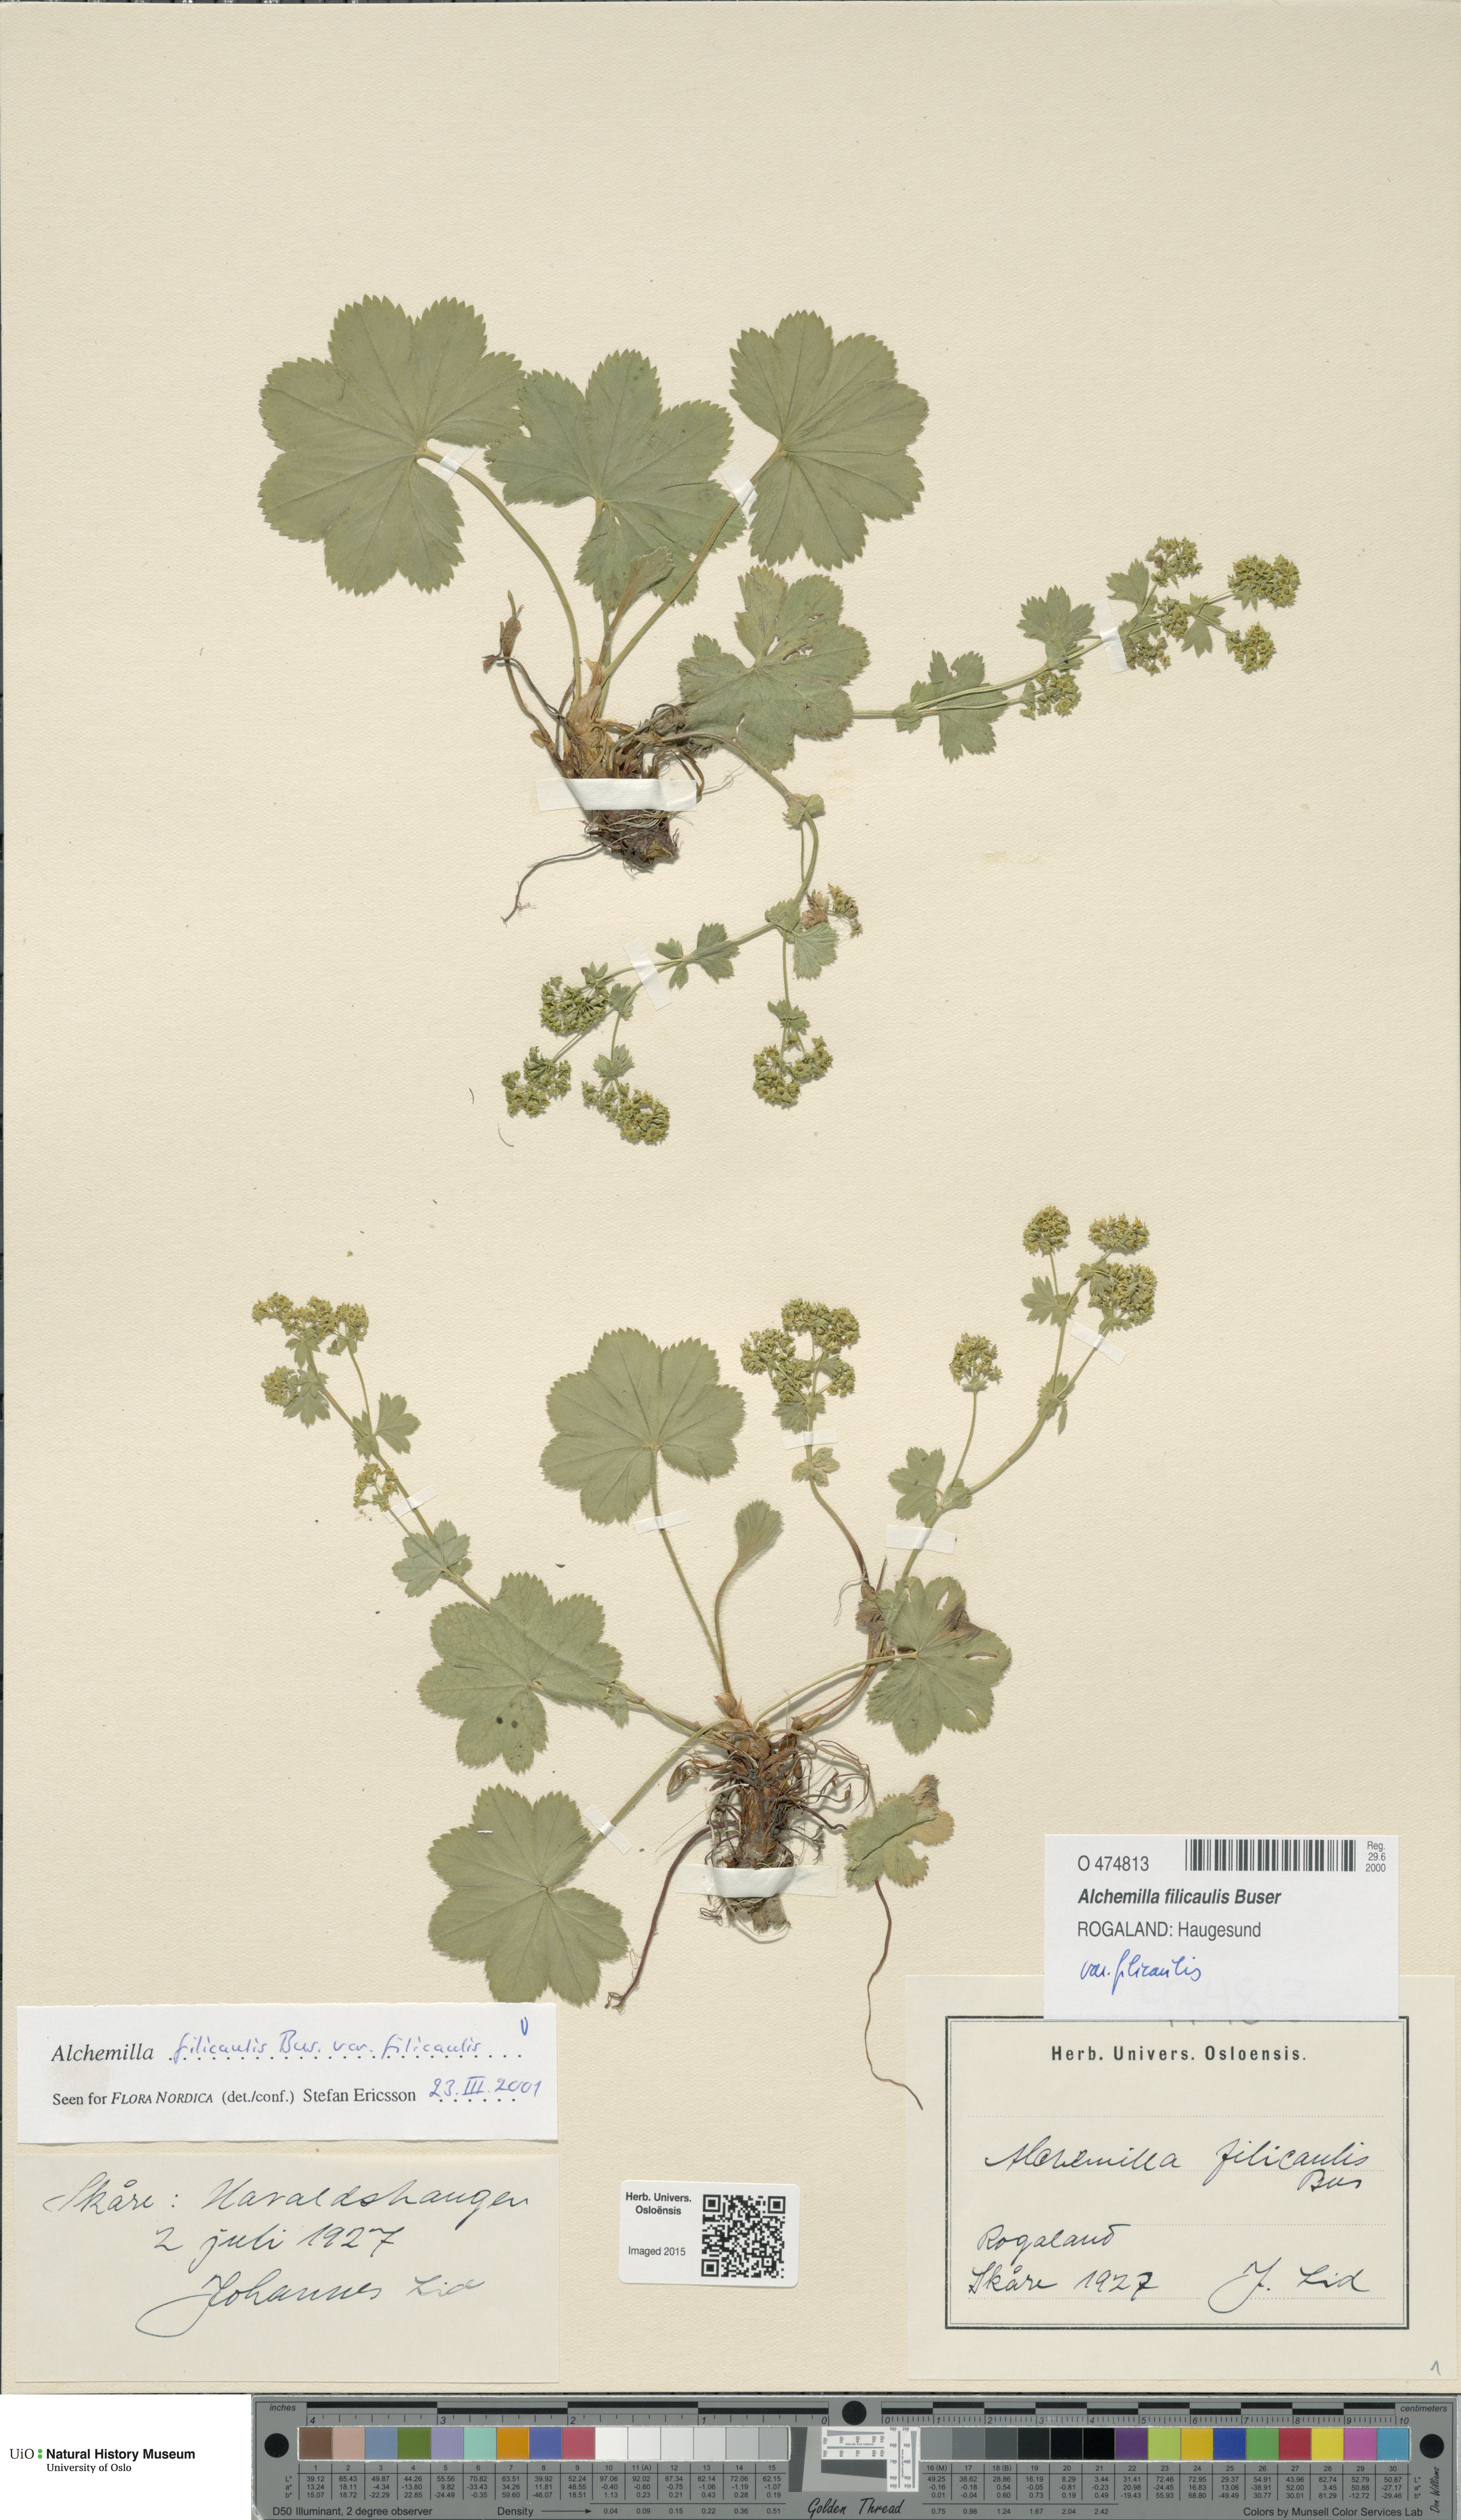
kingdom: Plantae
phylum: Tracheophyta
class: Magnoliopsida
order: Rosales
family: Rosaceae
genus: Alchemilla
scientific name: Alchemilla filicaulis
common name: Hairy lady's-mantle
